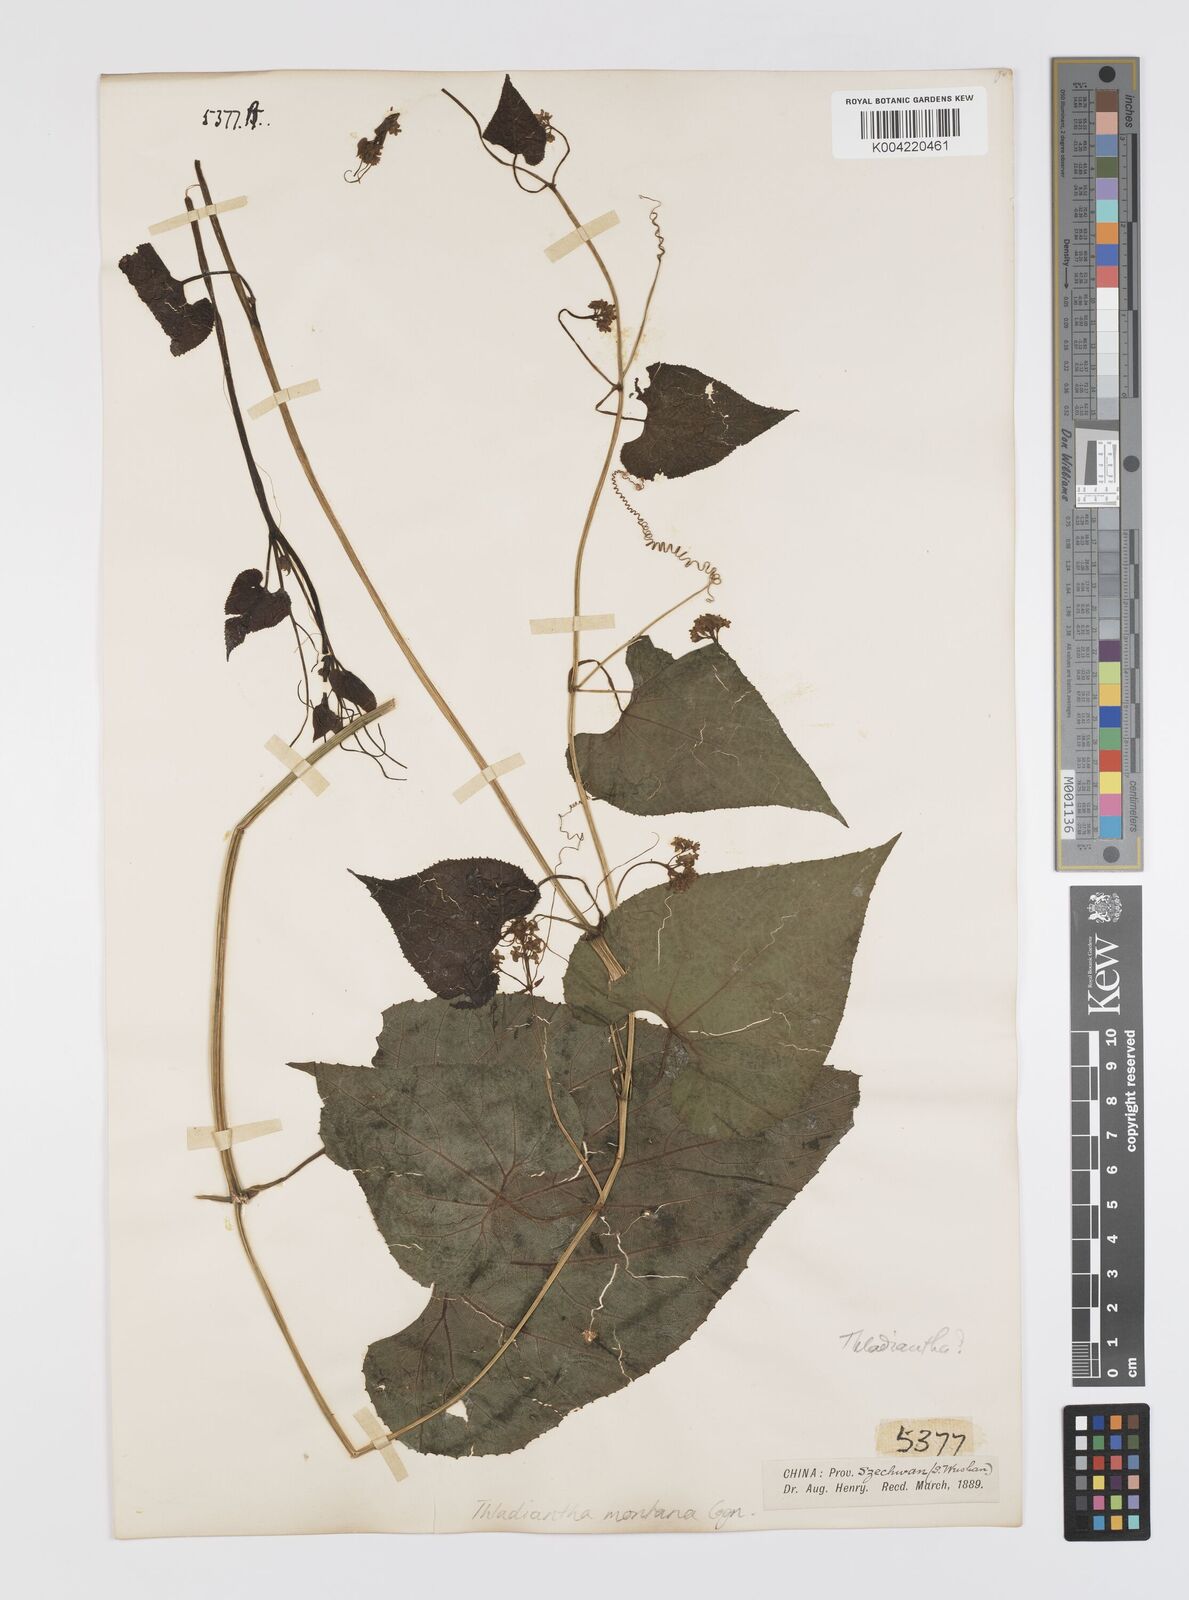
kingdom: Plantae
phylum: Tracheophyta
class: Magnoliopsida
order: Cucurbitales
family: Cucurbitaceae
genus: Thladiantha
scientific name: Thladiantha montana
